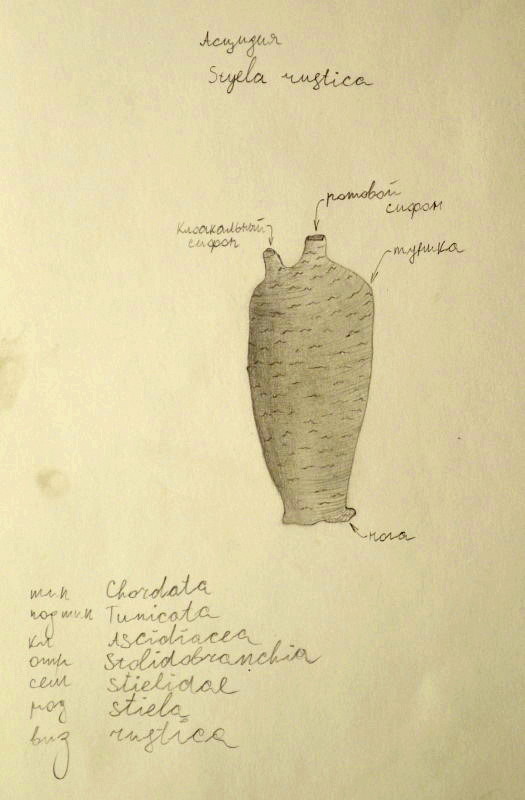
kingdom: Animalia
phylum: Chordata
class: Ascidiacea
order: Stolidobranchia
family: Styelidae
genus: Styela
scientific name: Styela rustica
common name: асцидия
